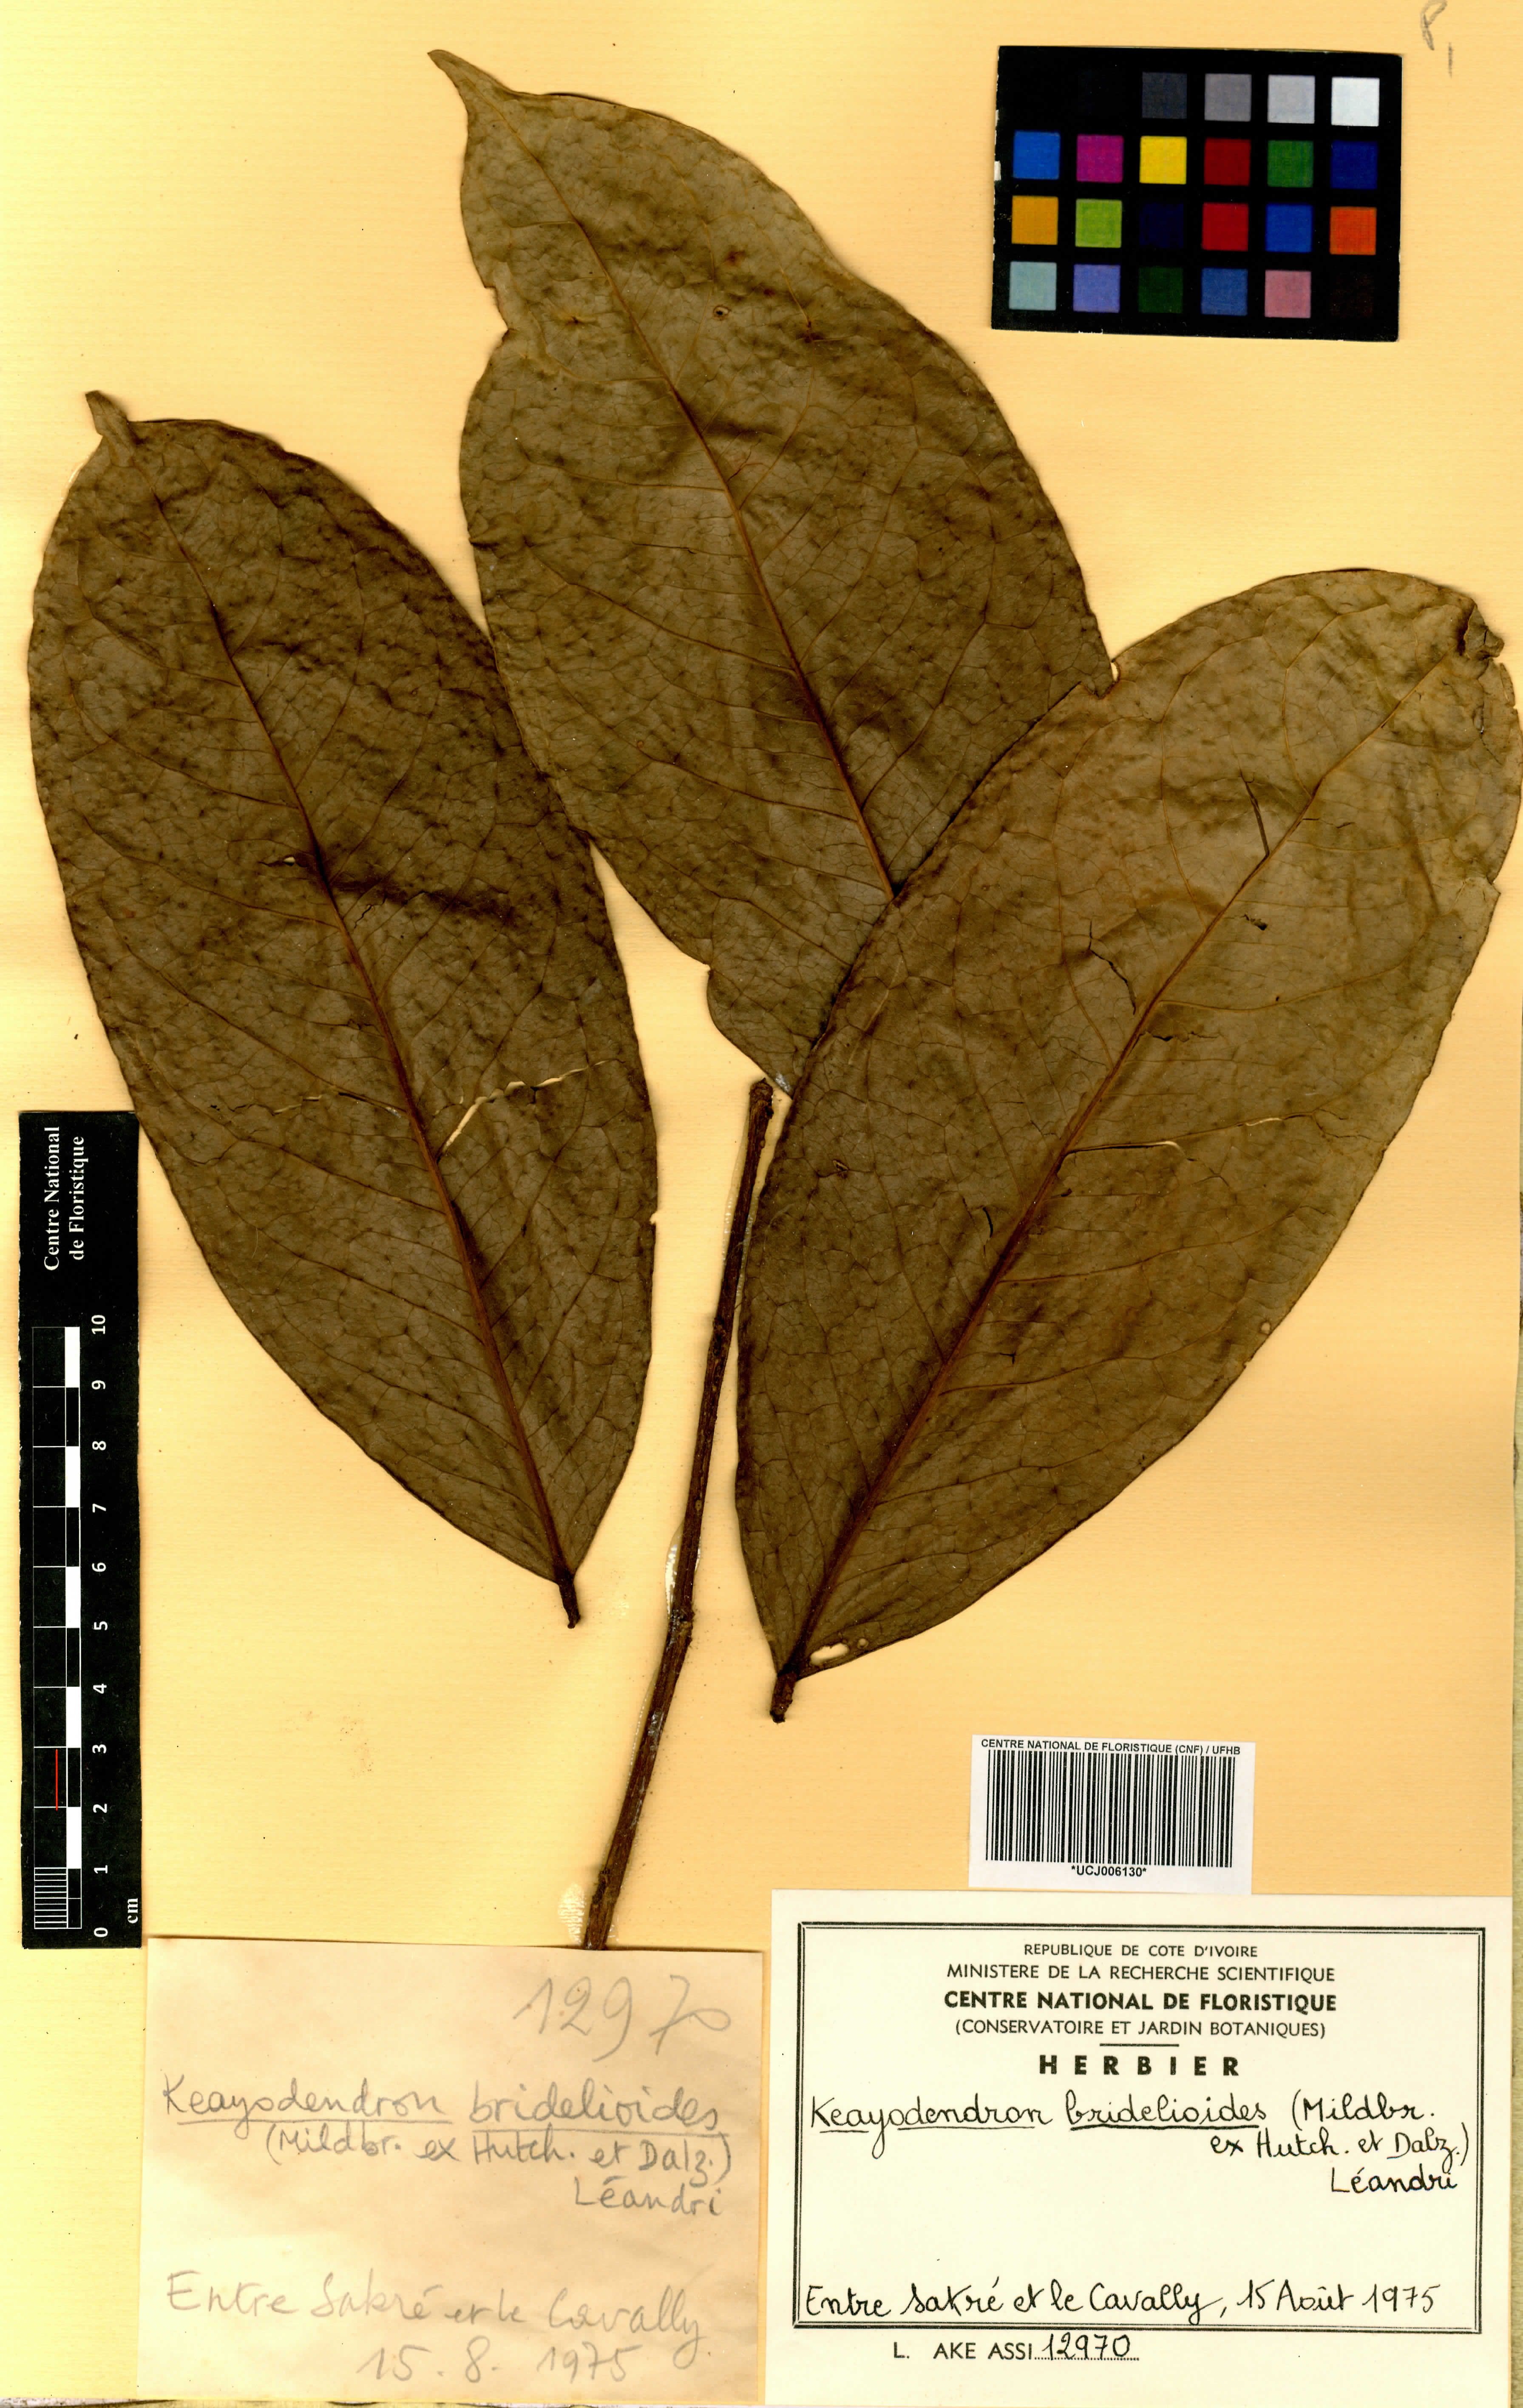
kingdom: Plantae
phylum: Tracheophyta
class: Magnoliopsida
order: Malpighiales
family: Phyllanthaceae
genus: Keayodendron
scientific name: Keayodendron bridelioides
